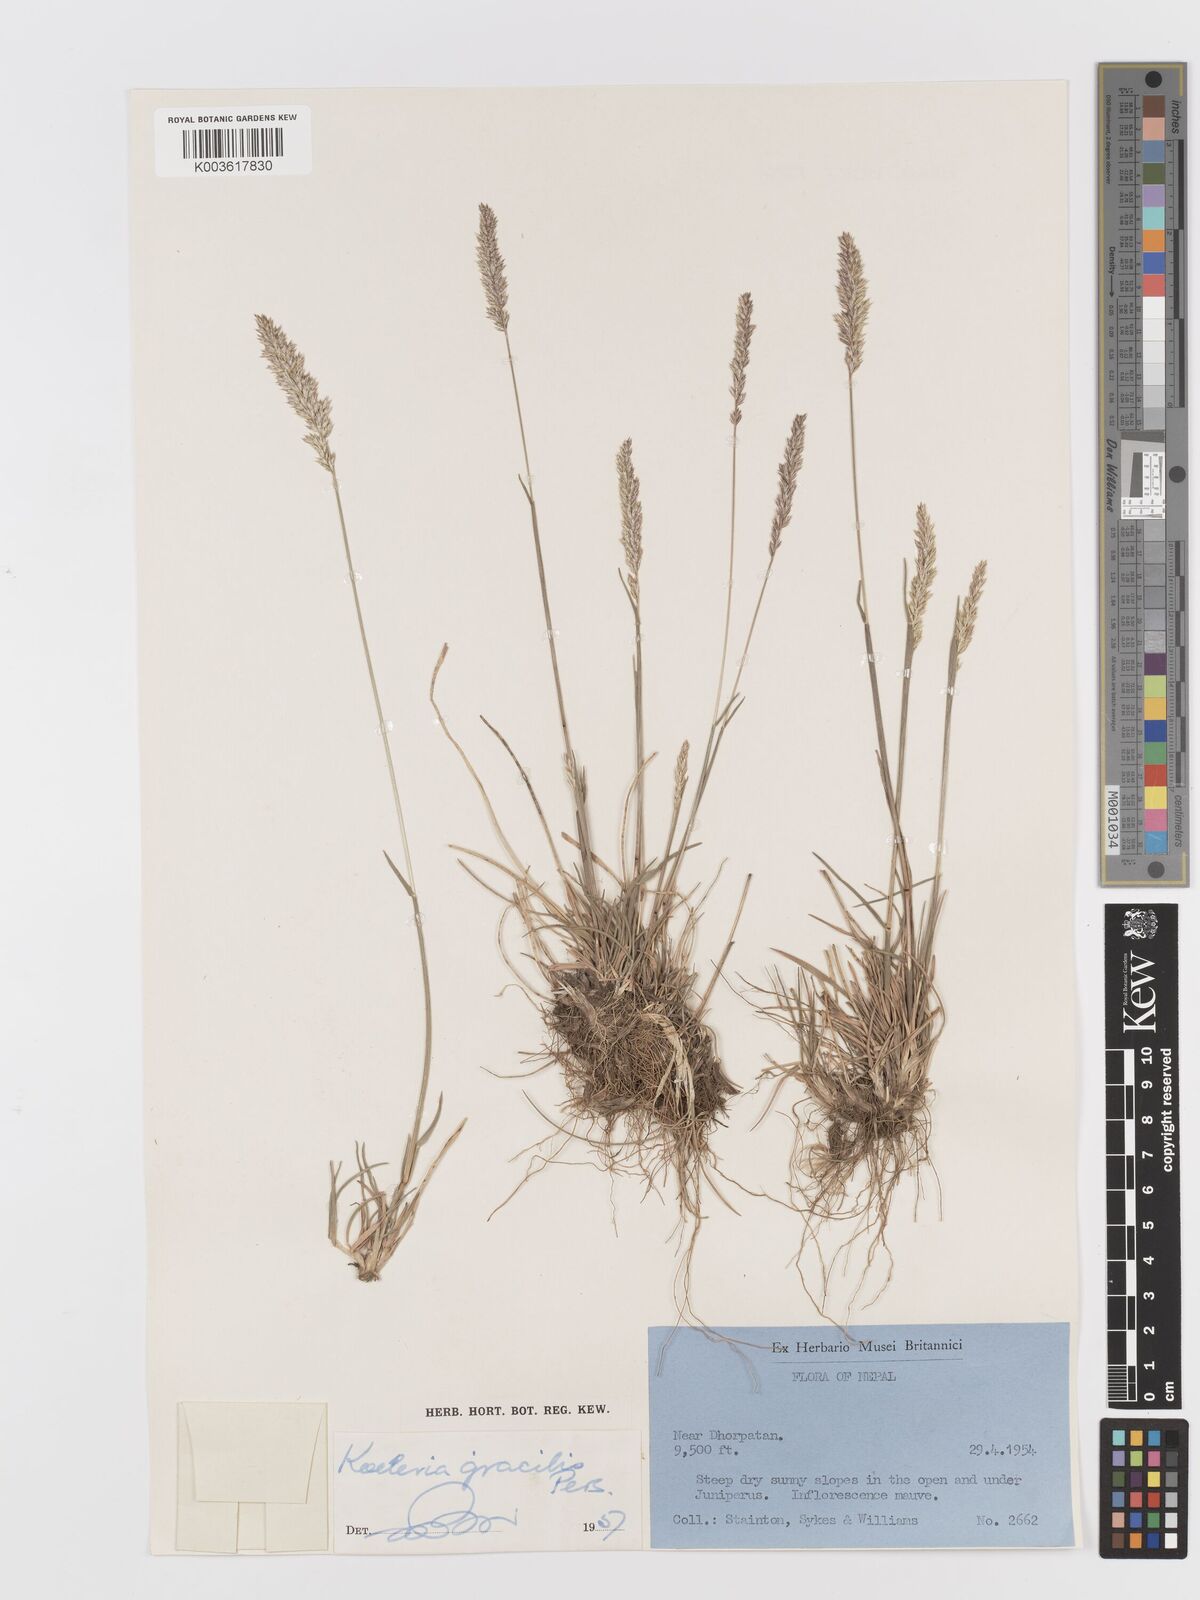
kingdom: Plantae
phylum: Tracheophyta
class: Liliopsida
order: Poales
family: Poaceae
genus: Koeleria
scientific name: Koeleria macrantha
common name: Crested hair-grass
